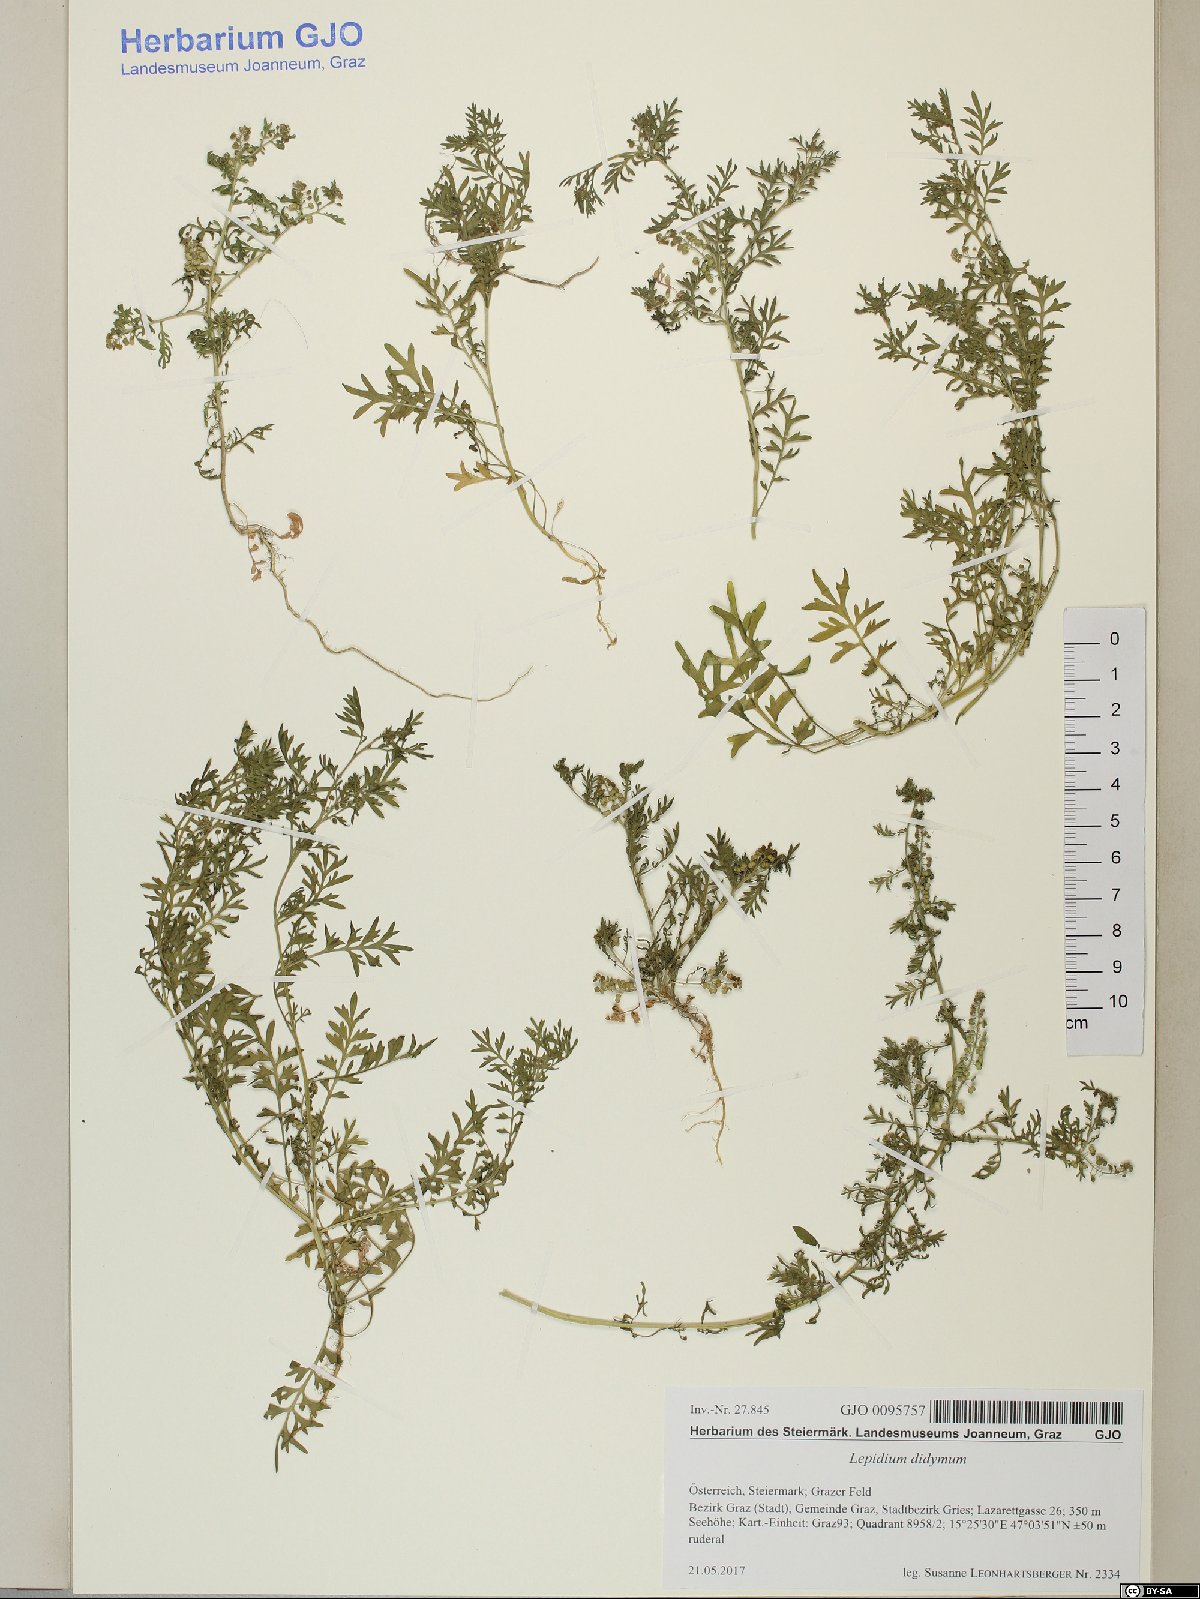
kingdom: Plantae
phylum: Tracheophyta
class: Magnoliopsida
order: Brassicales
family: Brassicaceae
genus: Lepidium
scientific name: Lepidium didymum
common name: Lesser swinecress
